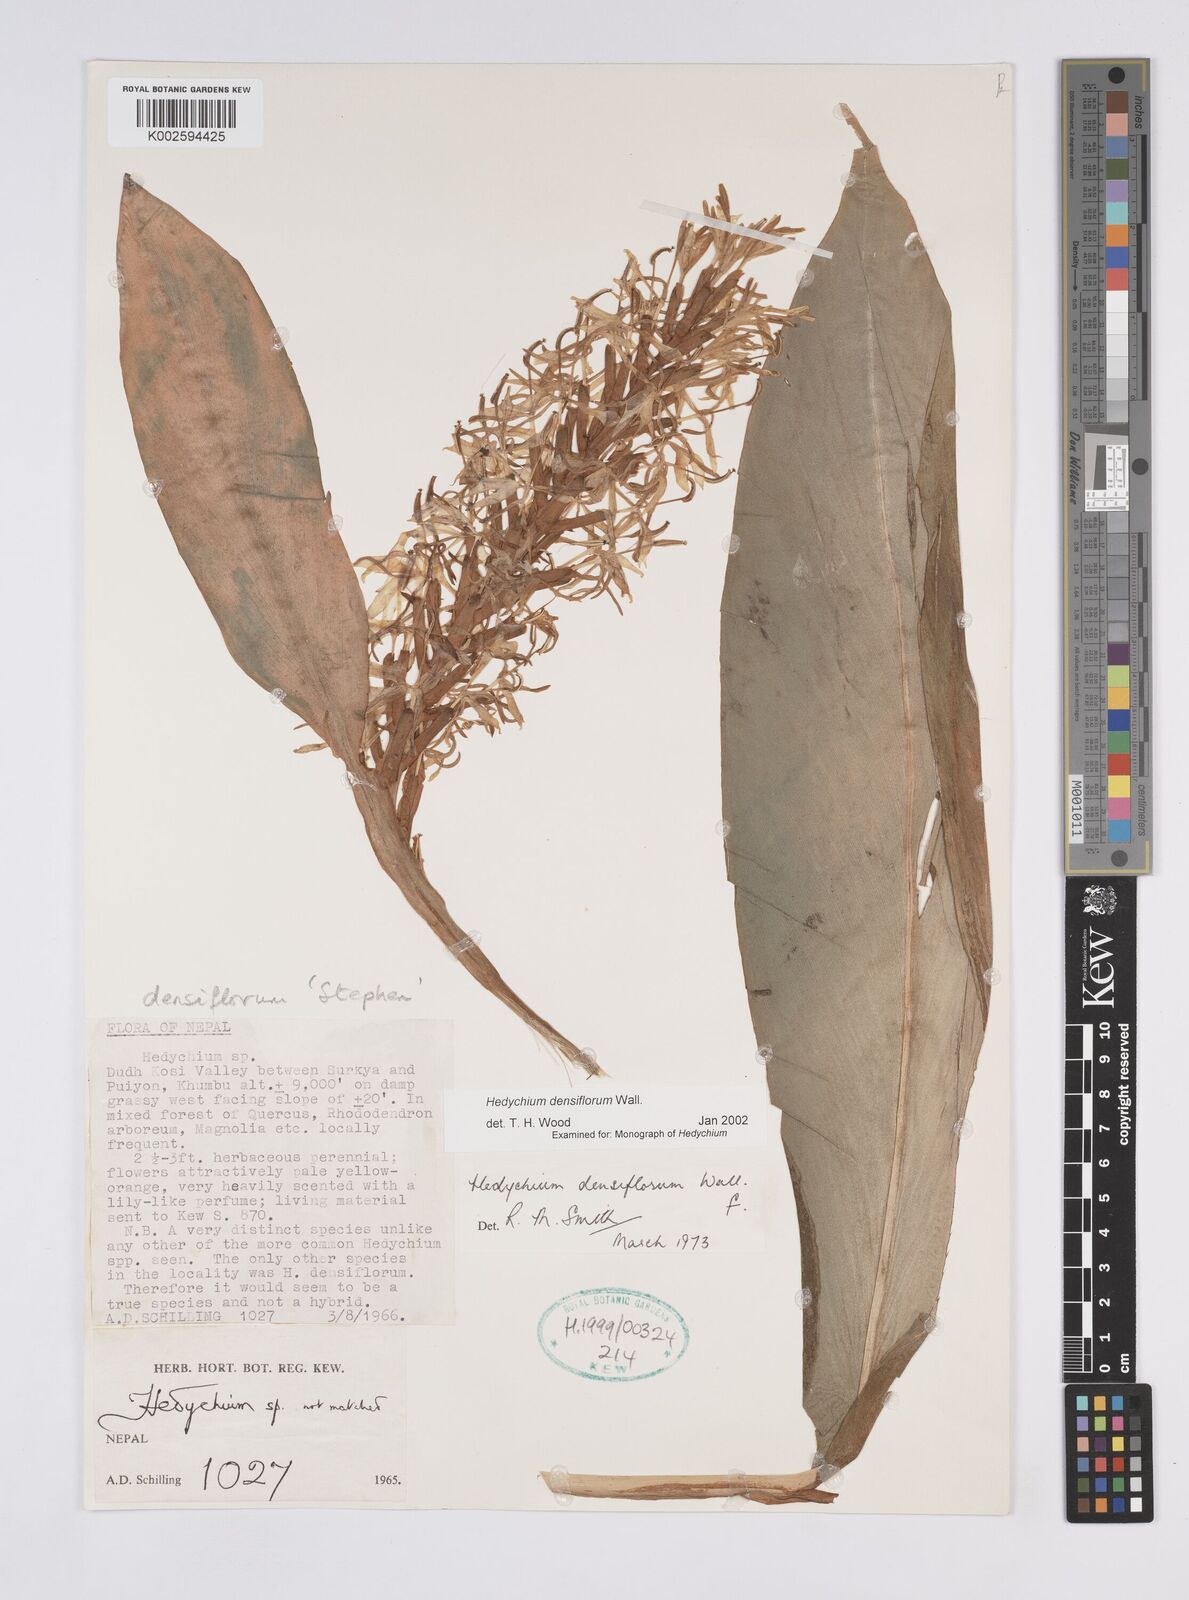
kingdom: Plantae
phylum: Tracheophyta
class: Liliopsida
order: Zingiberales
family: Zingiberaceae
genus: Hedychium
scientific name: Hedychium densiflorum
